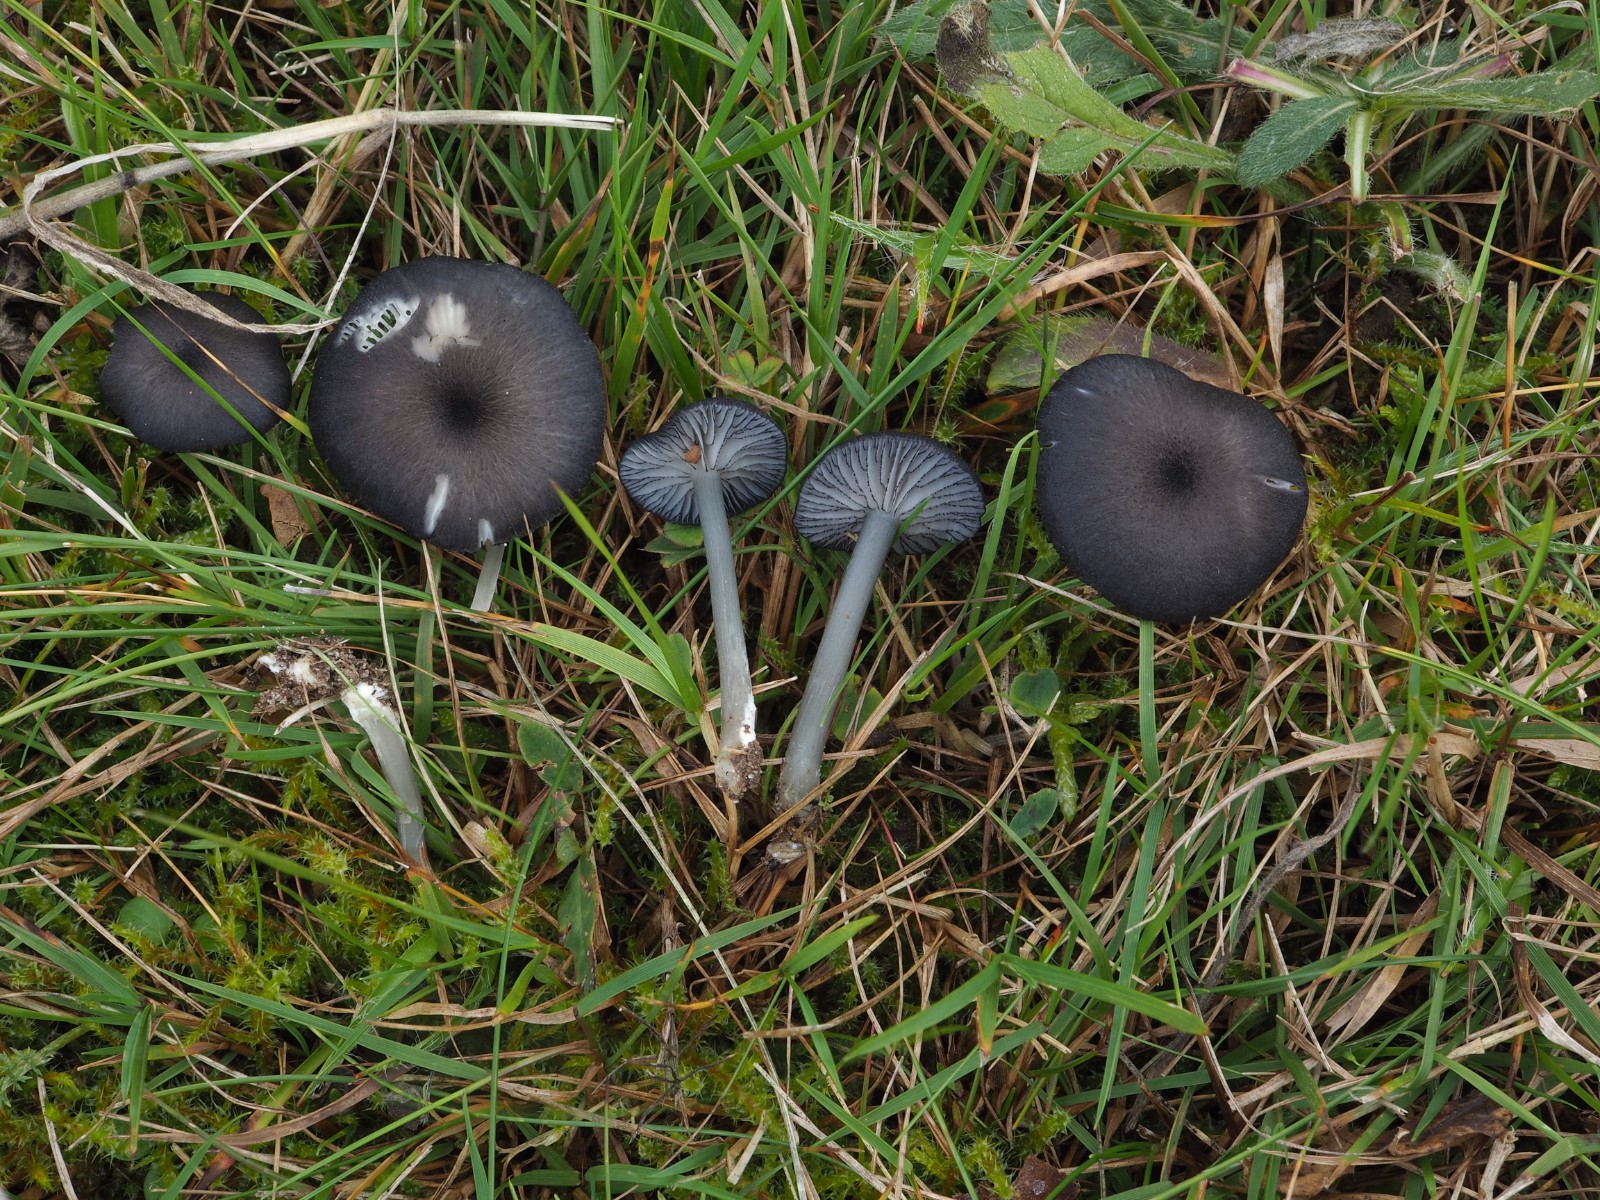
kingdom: Fungi
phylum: Basidiomycota
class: Agaricomycetes
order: Agaricales
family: Entolomataceae
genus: Entoloma
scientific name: Entoloma
